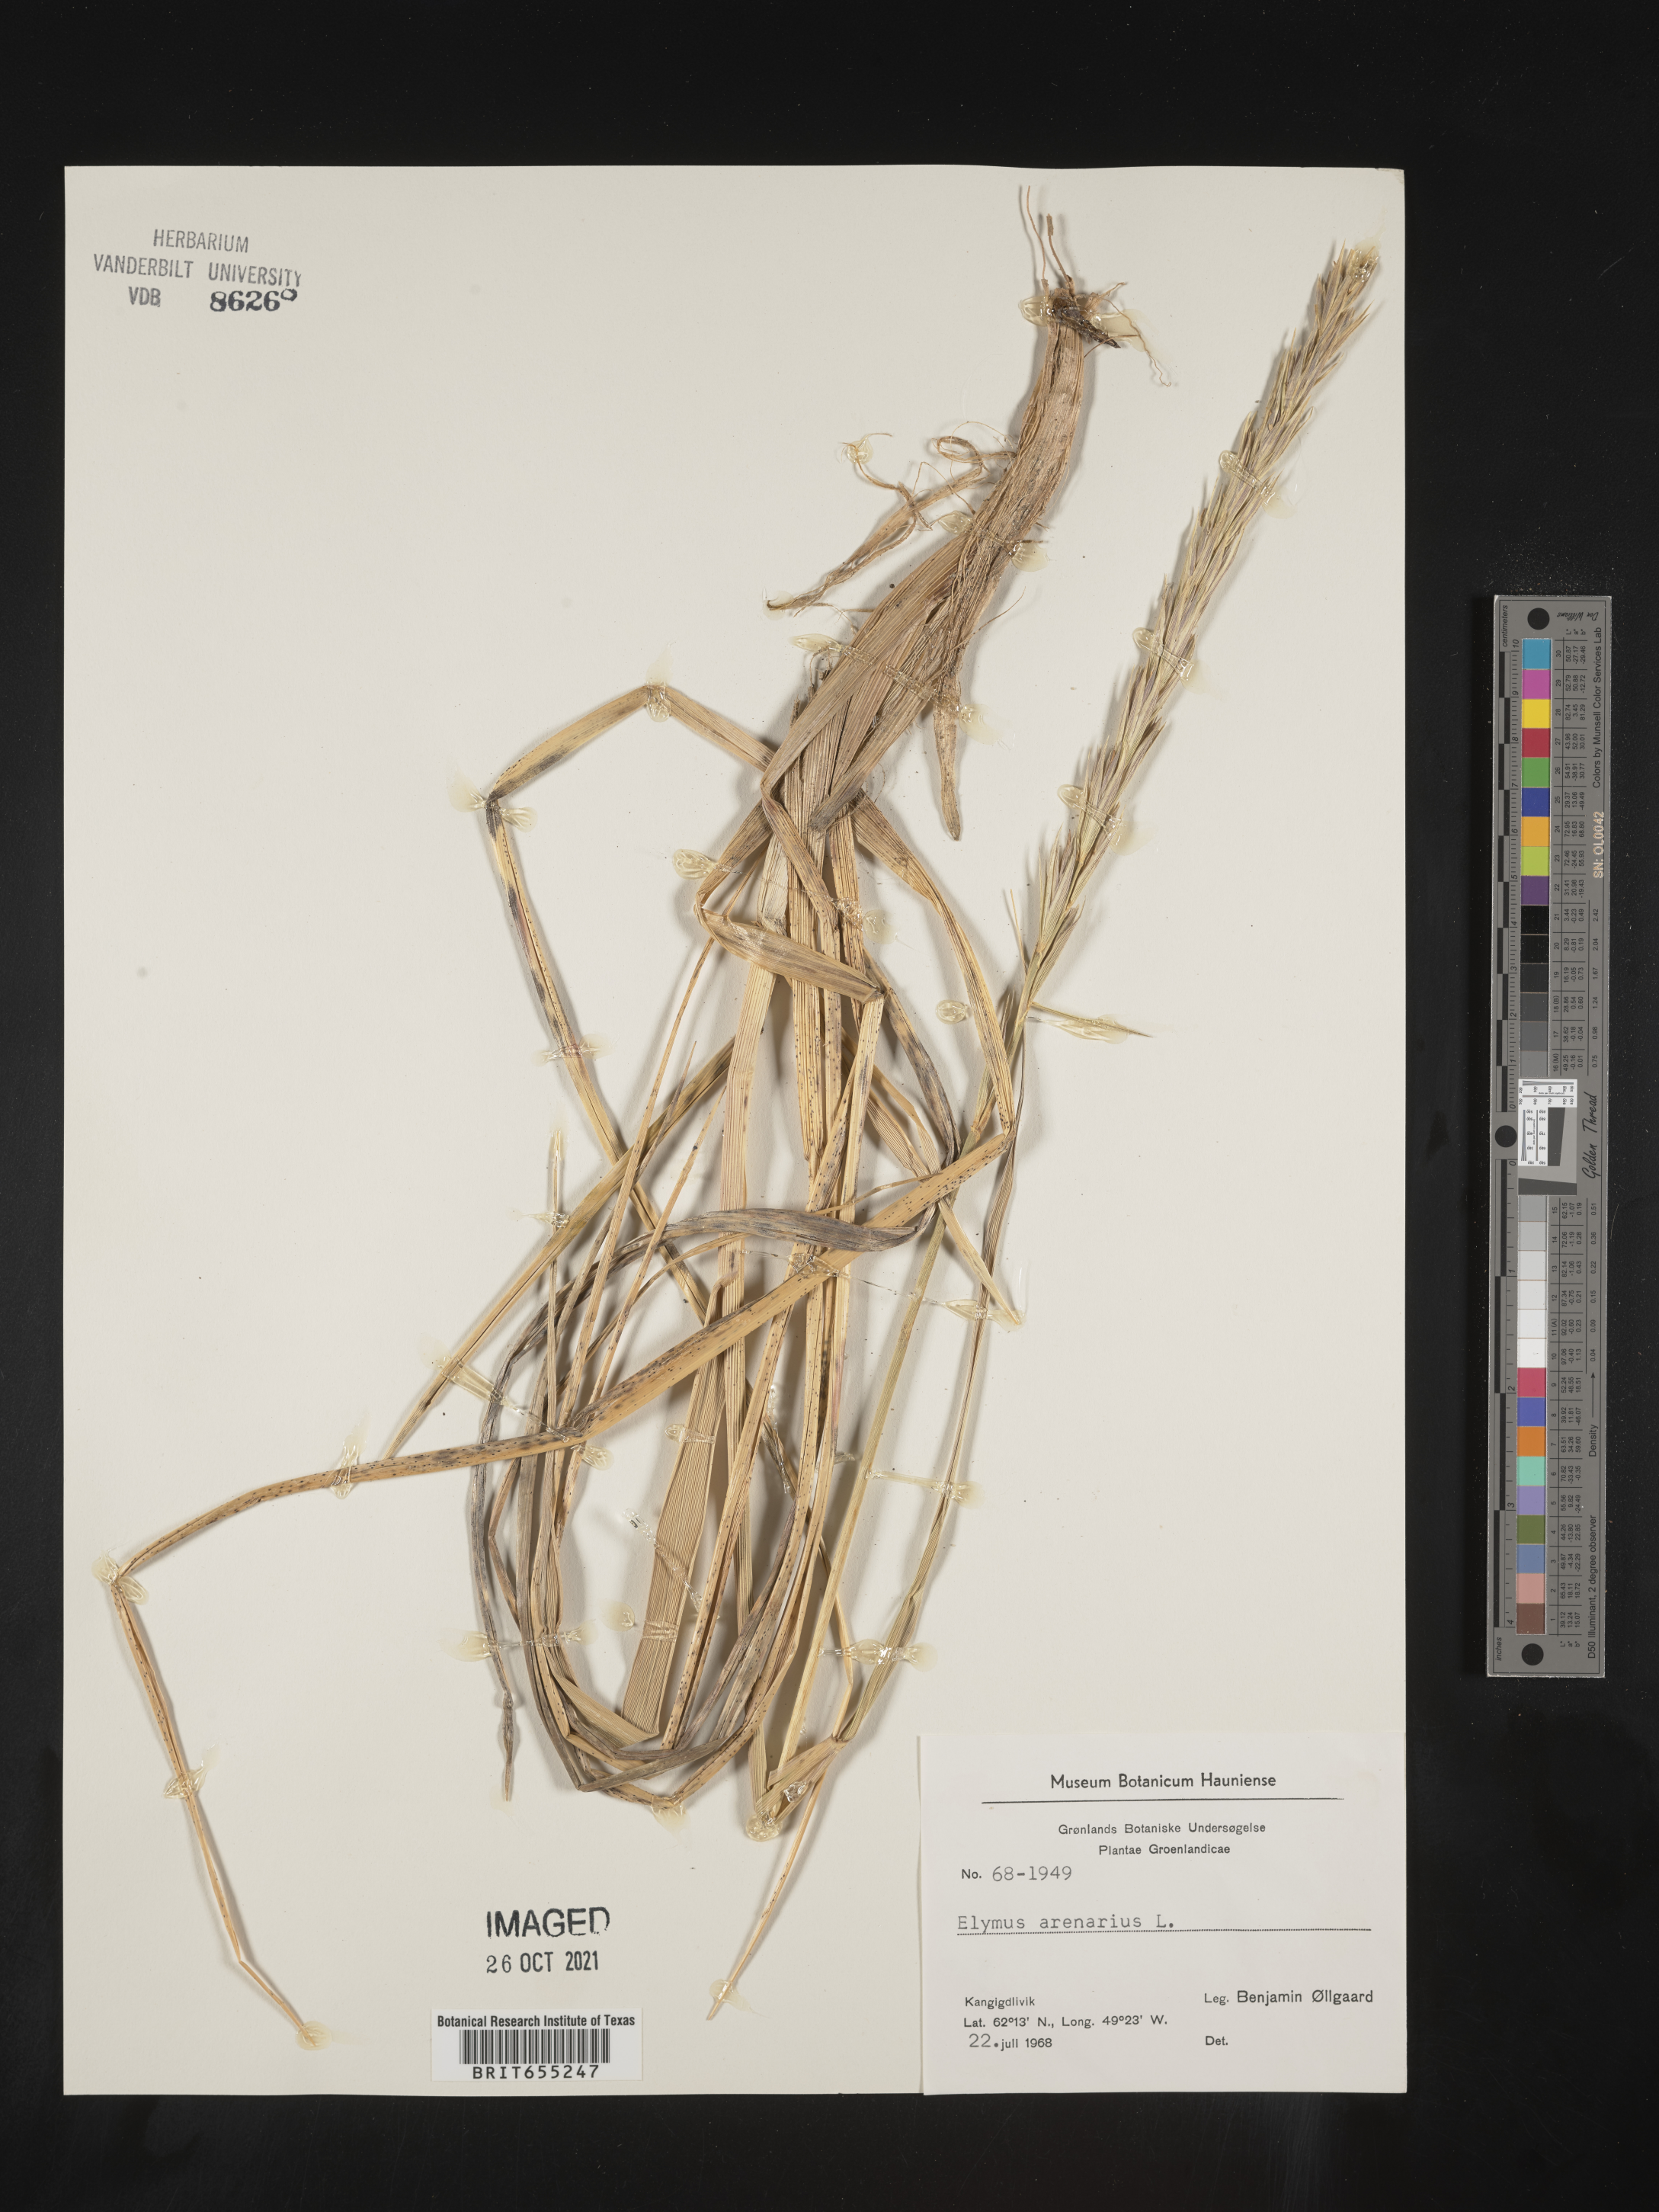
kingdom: Plantae
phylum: Tracheophyta
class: Liliopsida
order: Poales
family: Poaceae
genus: Elymus
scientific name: Elymus
